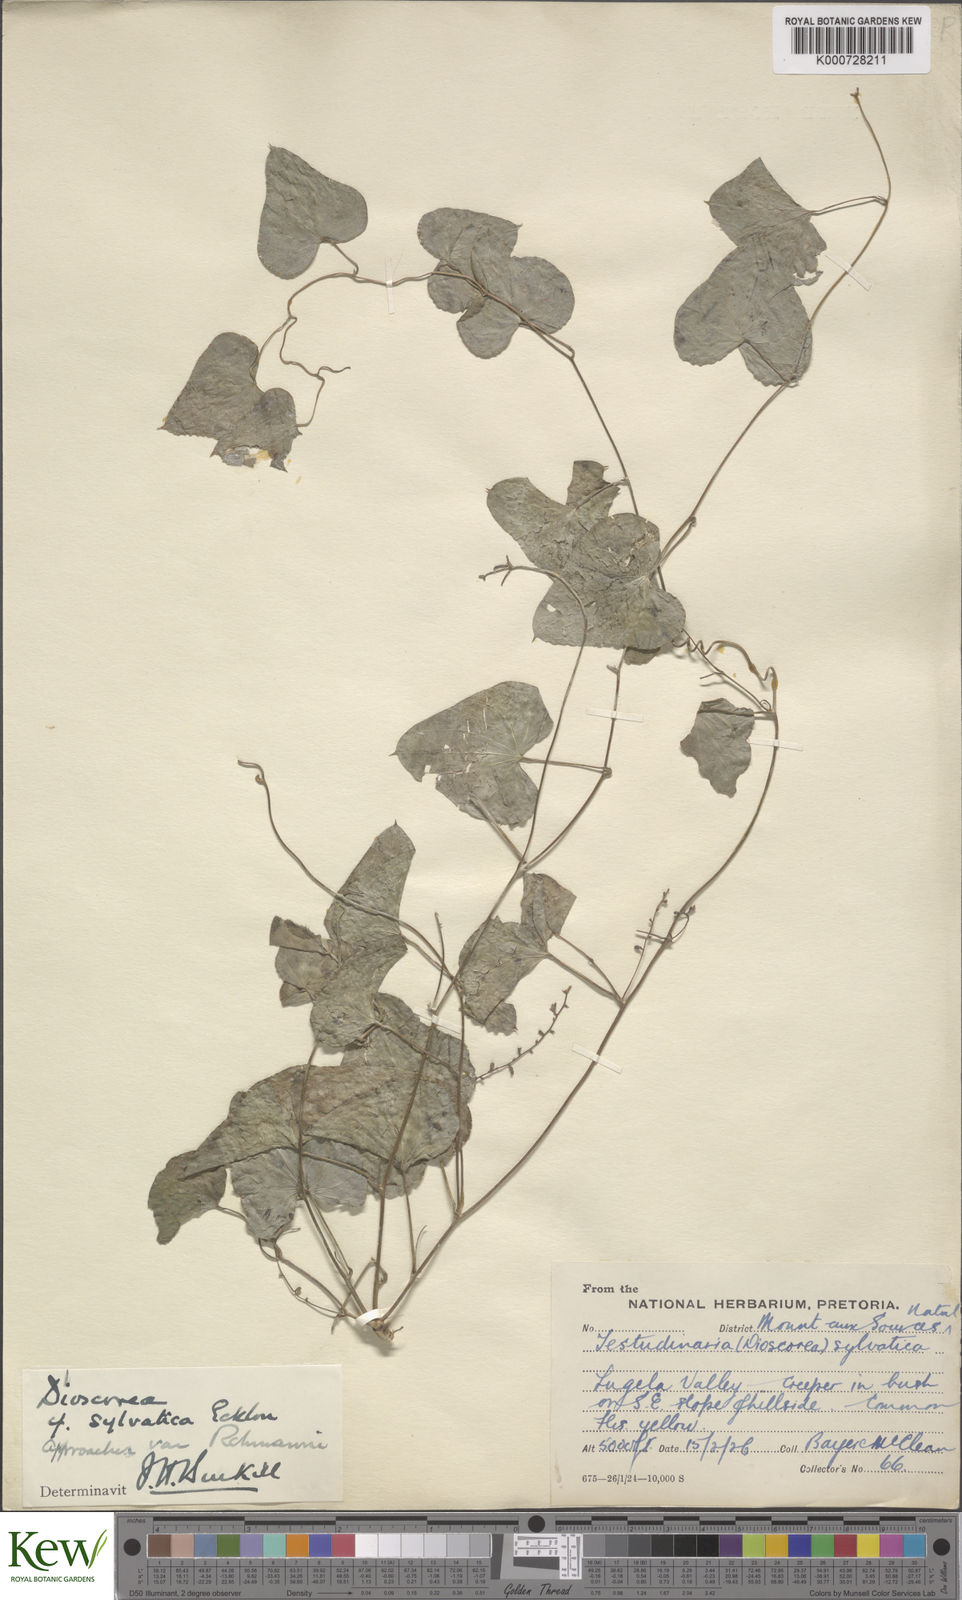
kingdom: Plantae
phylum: Tracheophyta
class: Liliopsida
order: Dioscoreales
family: Dioscoreaceae
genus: Dioscorea
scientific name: Dioscorea sylvatica
